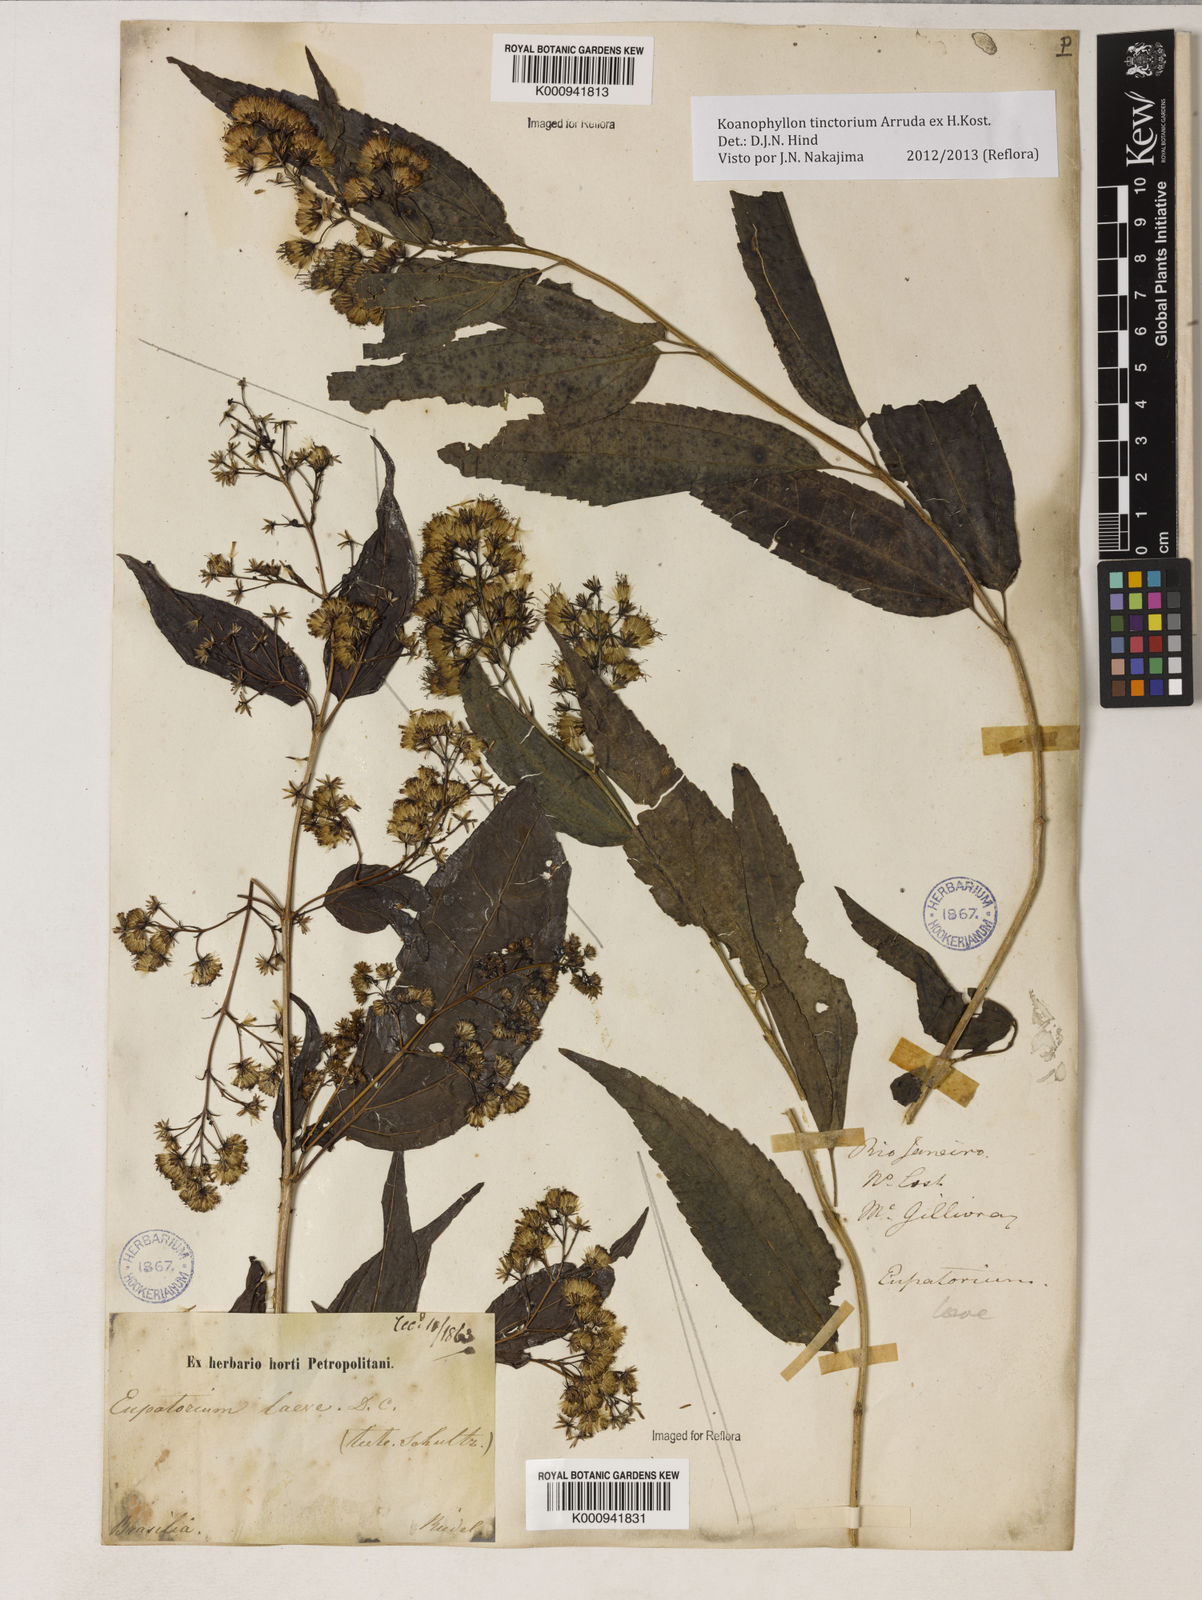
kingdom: Plantae
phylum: Tracheophyta
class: Magnoliopsida
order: Asterales
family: Asteraceae
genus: Koanophyllon
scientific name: Koanophyllon
